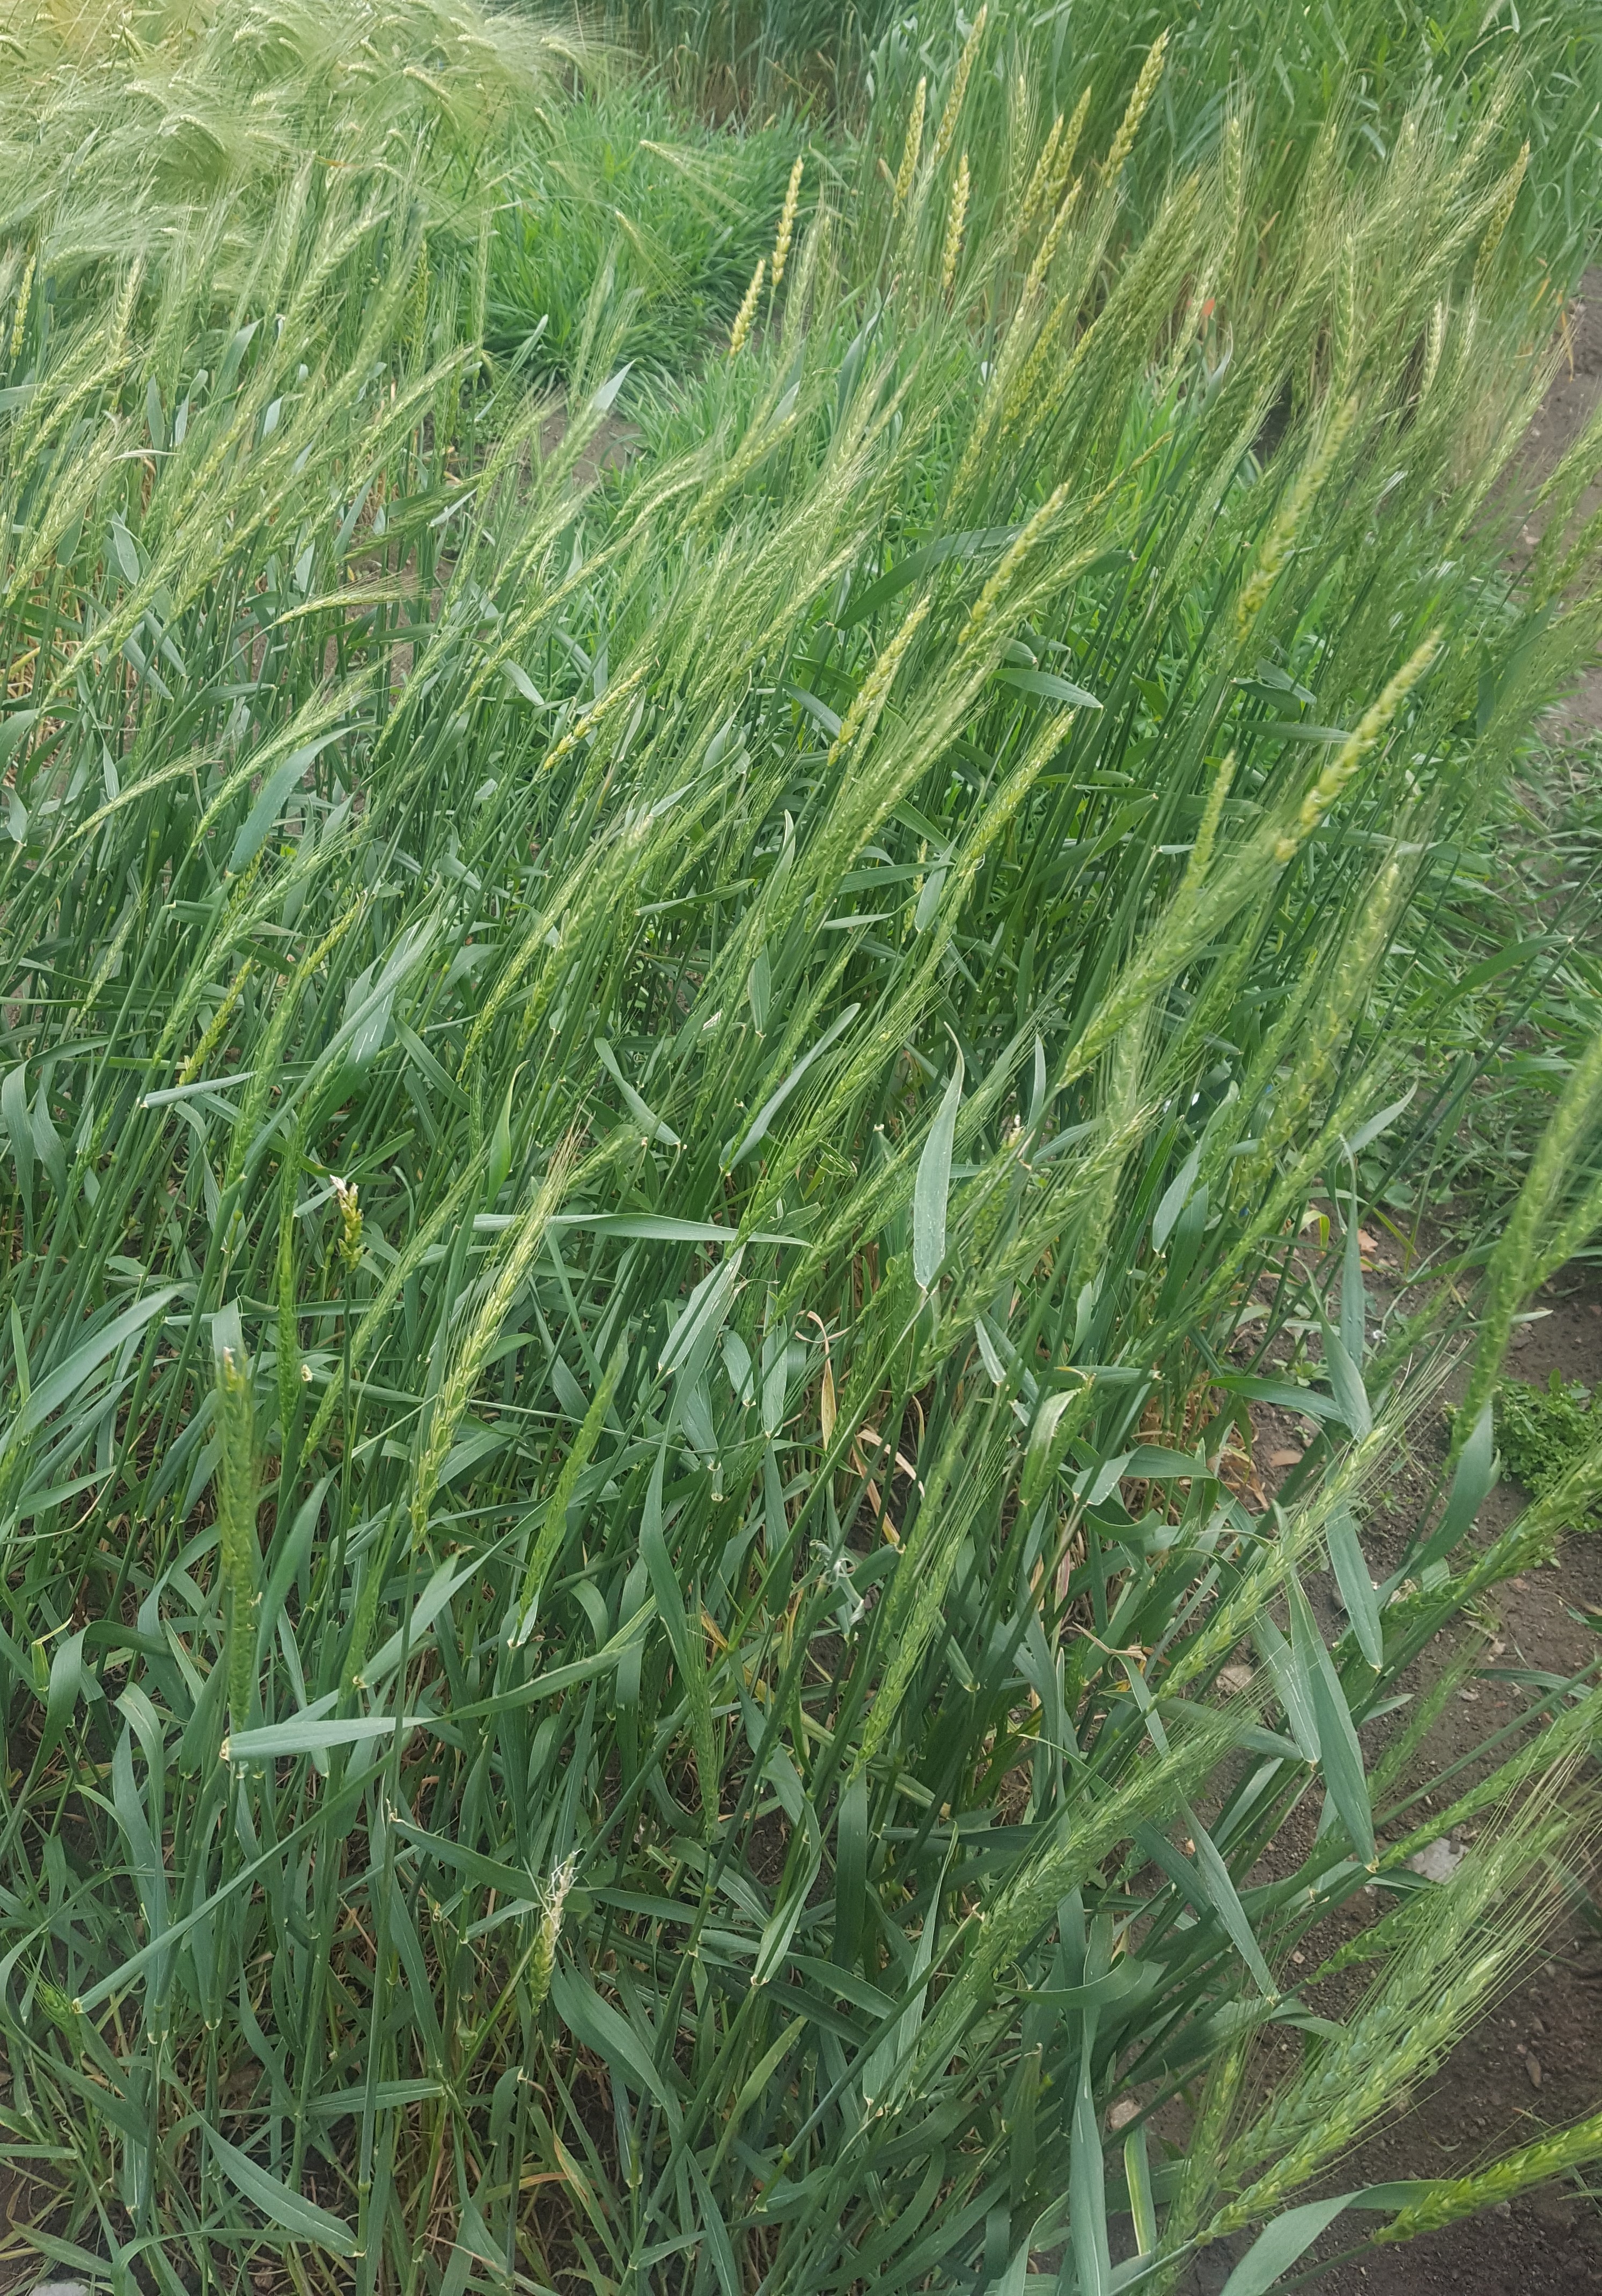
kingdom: Plantae
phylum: Tracheophyta
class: Liliopsida
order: Poales
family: Poaceae
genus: Triticum
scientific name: Triticum aestivum
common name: Common wheat
